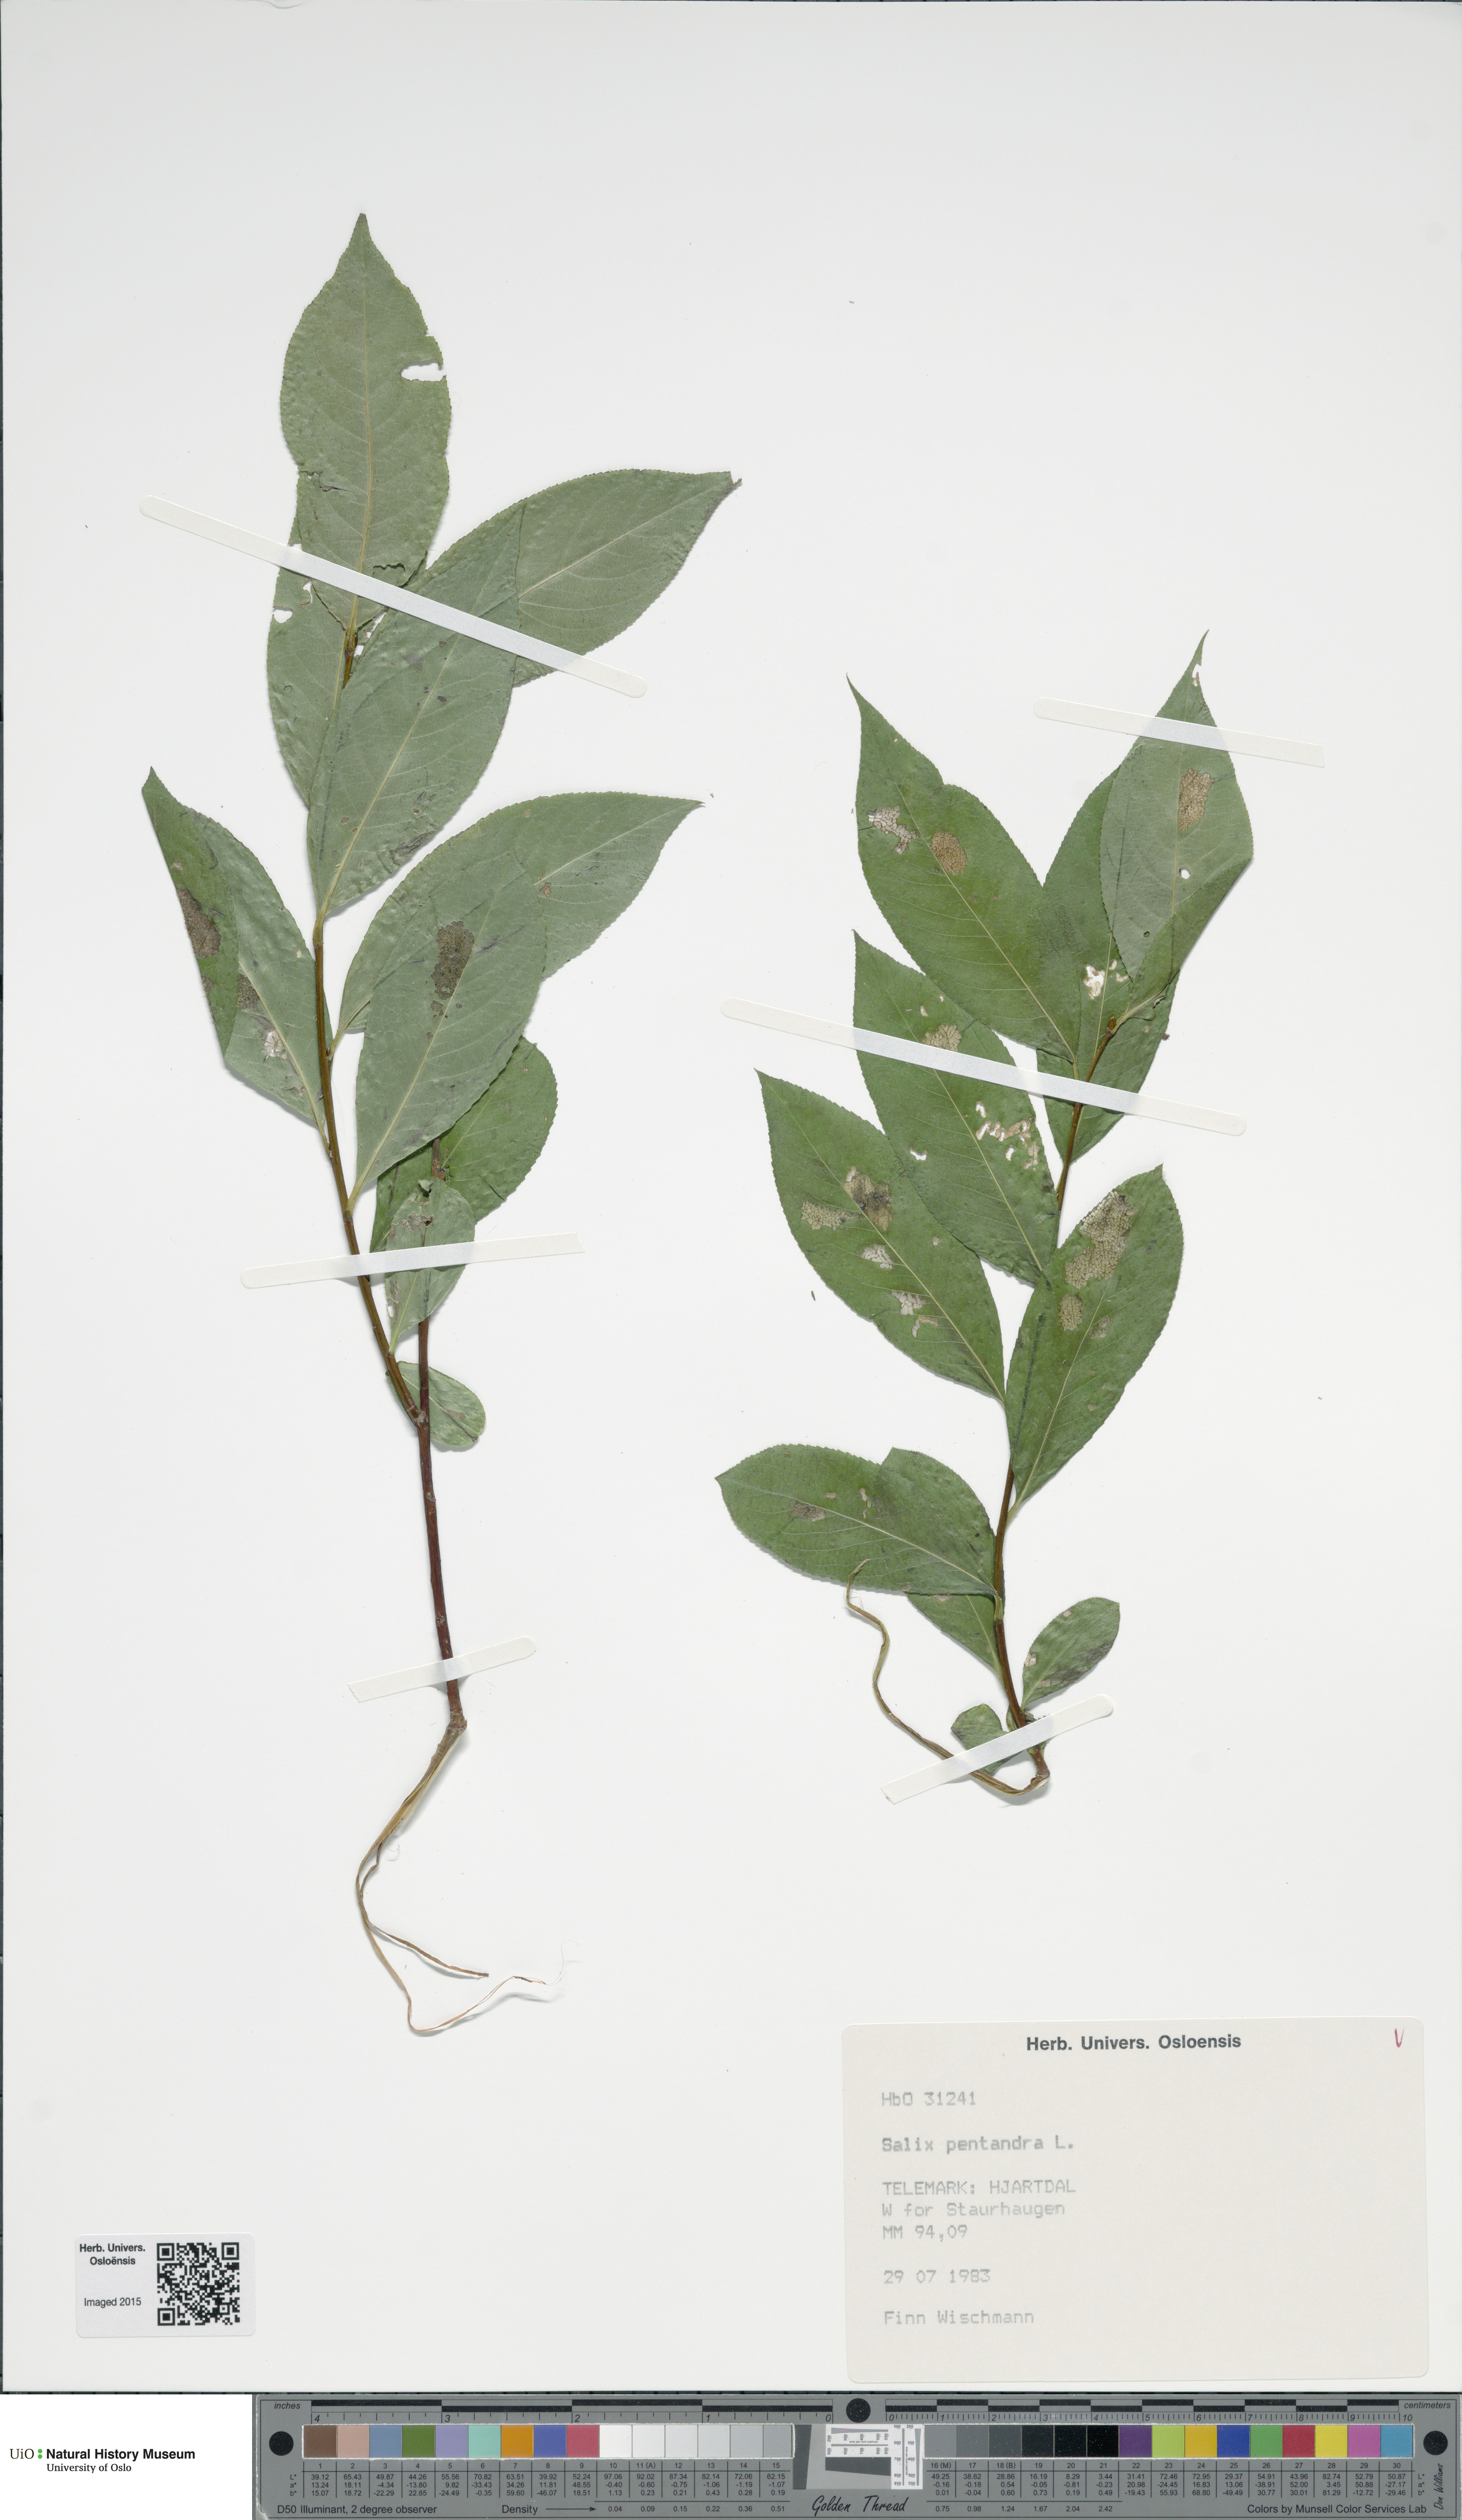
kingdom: Plantae
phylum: Tracheophyta
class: Magnoliopsida
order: Malpighiales
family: Salicaceae
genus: Salix
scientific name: Salix pentandra
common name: Bay willow
